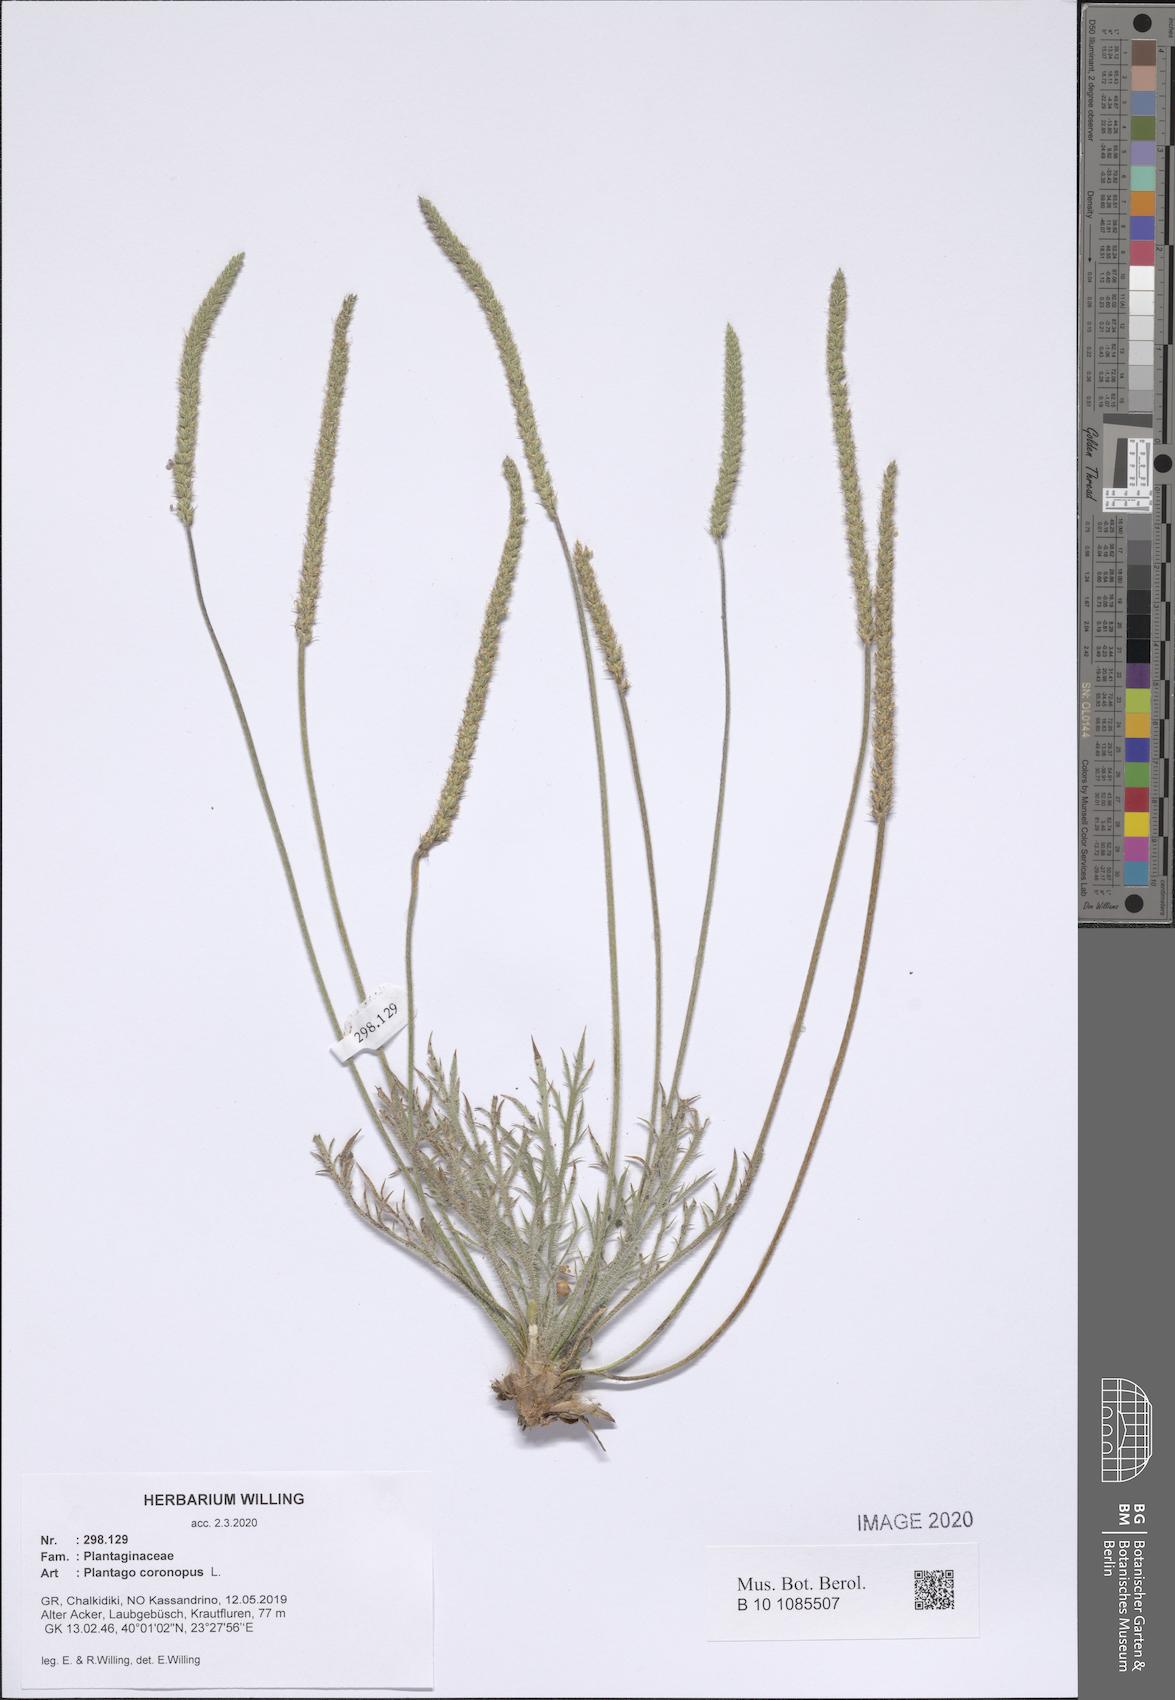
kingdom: Plantae
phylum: Tracheophyta
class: Magnoliopsida
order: Lamiales
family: Plantaginaceae
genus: Plantago
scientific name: Plantago coronopus
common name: Buck's-horn plantain
